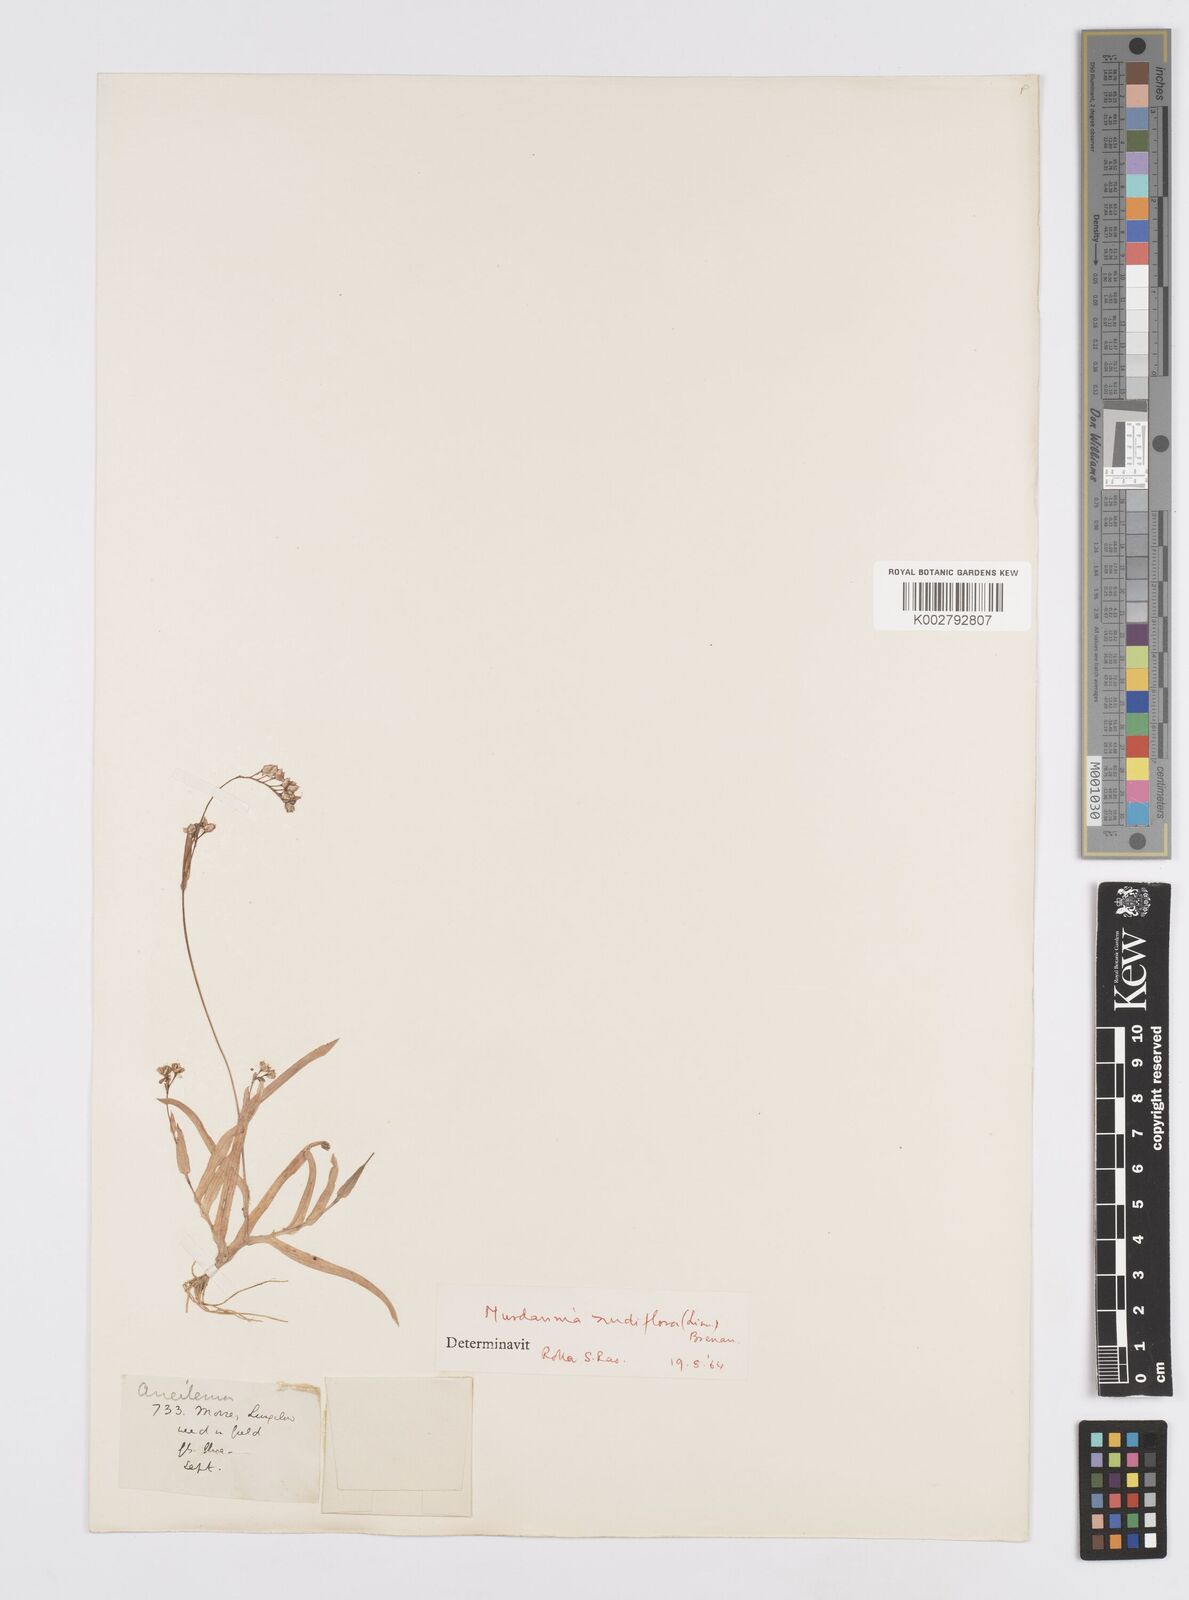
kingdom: Plantae
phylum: Tracheophyta
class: Liliopsida
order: Commelinales
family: Commelinaceae
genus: Murdannia
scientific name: Murdannia
